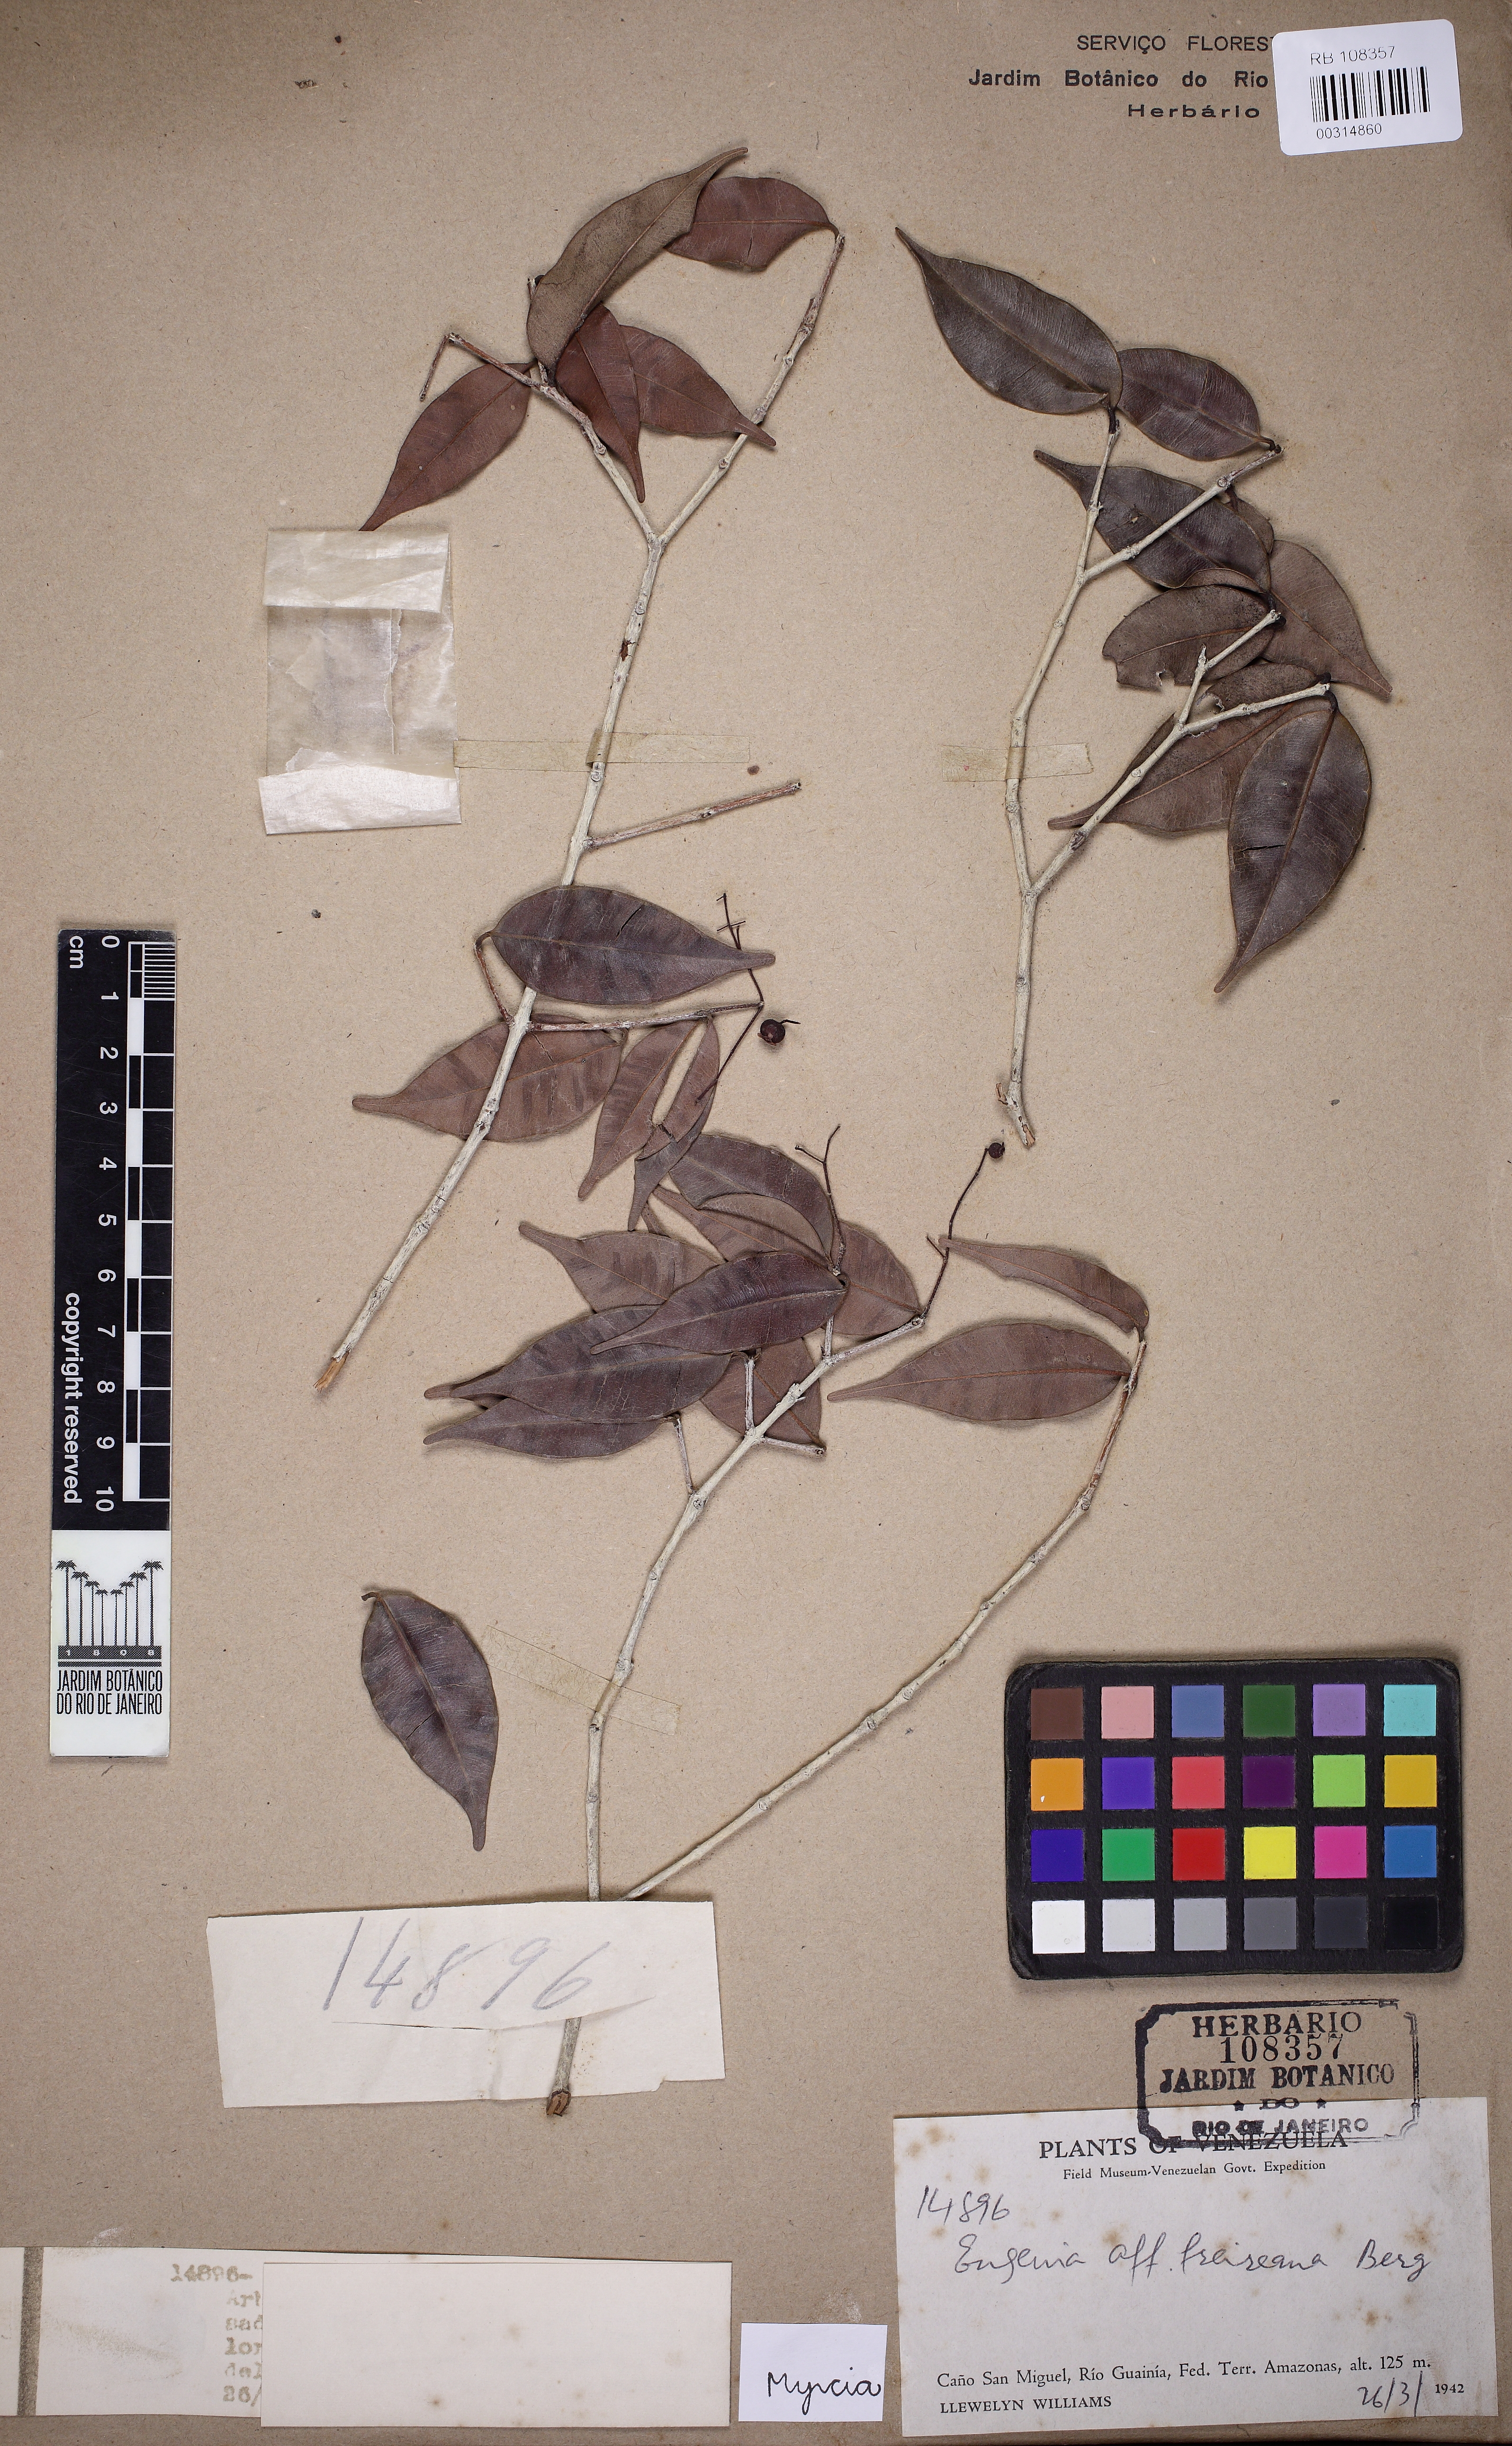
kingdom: Plantae
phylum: Tracheophyta
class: Magnoliopsida
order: Myrtales
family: Myrtaceae
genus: Myrcia
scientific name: Myrcia grandis
